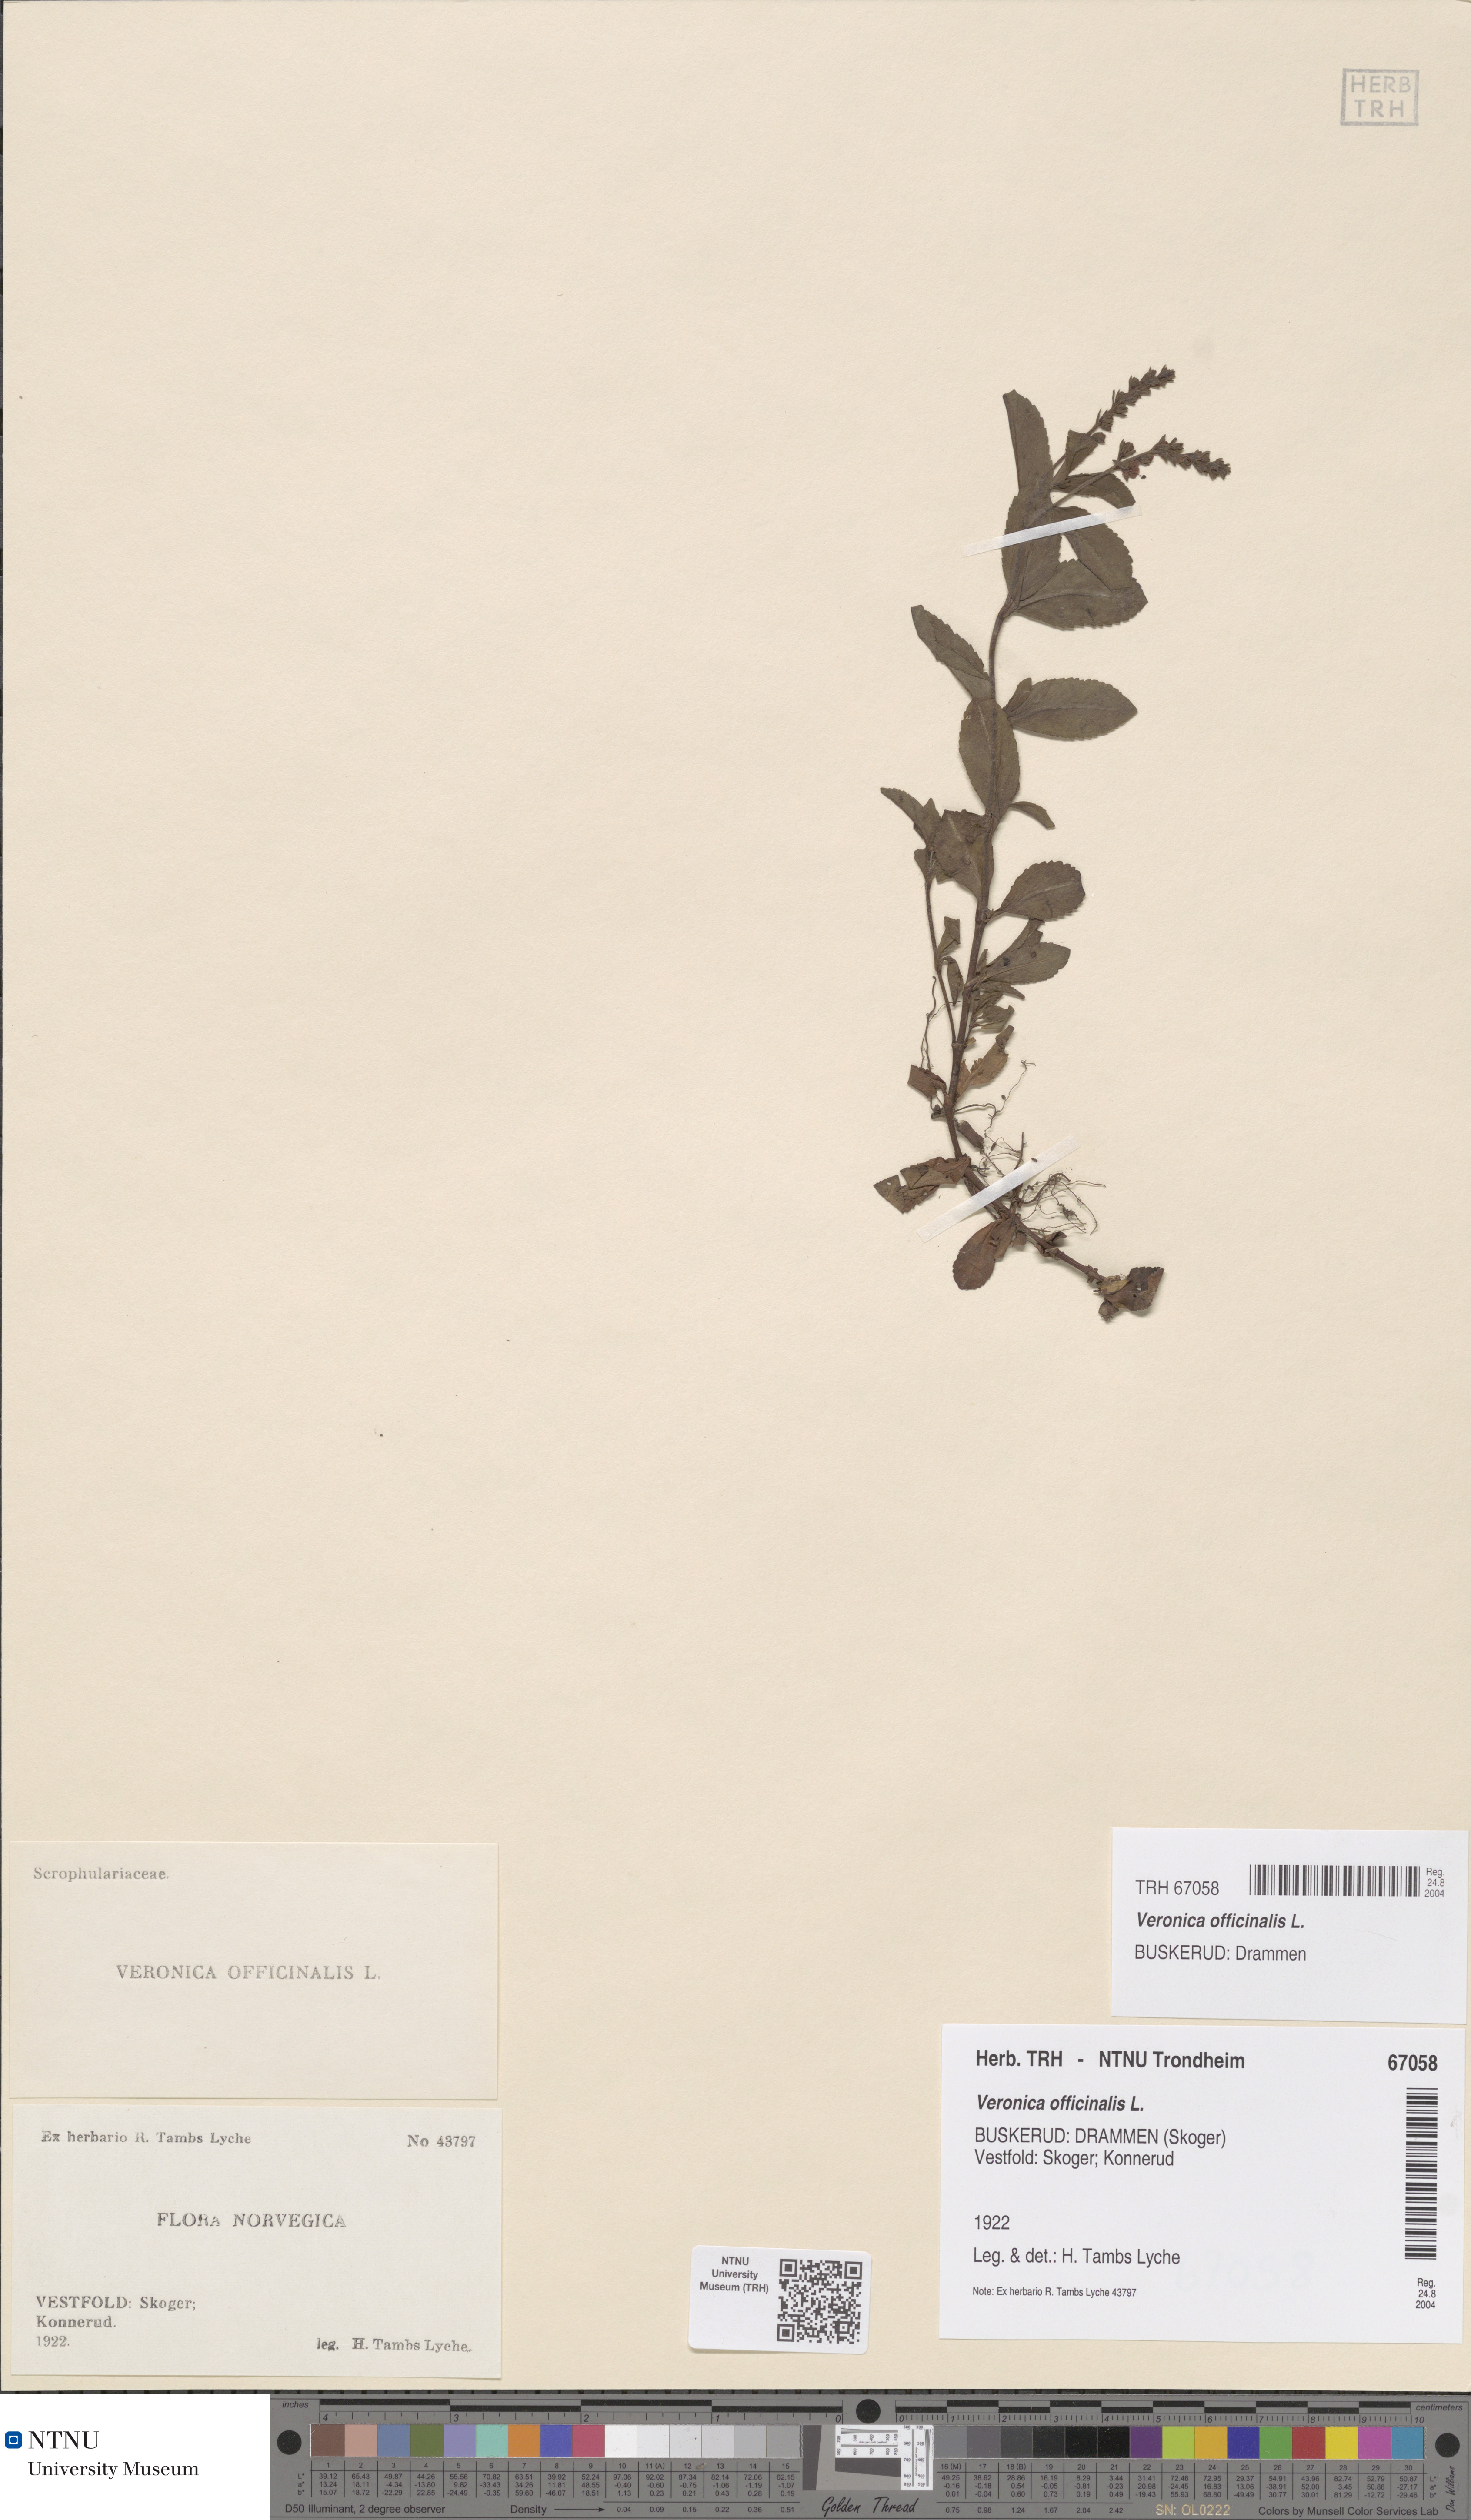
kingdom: Plantae
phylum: Tracheophyta
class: Magnoliopsida
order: Lamiales
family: Plantaginaceae
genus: Veronica
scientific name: Veronica officinalis
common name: Common speedwell
